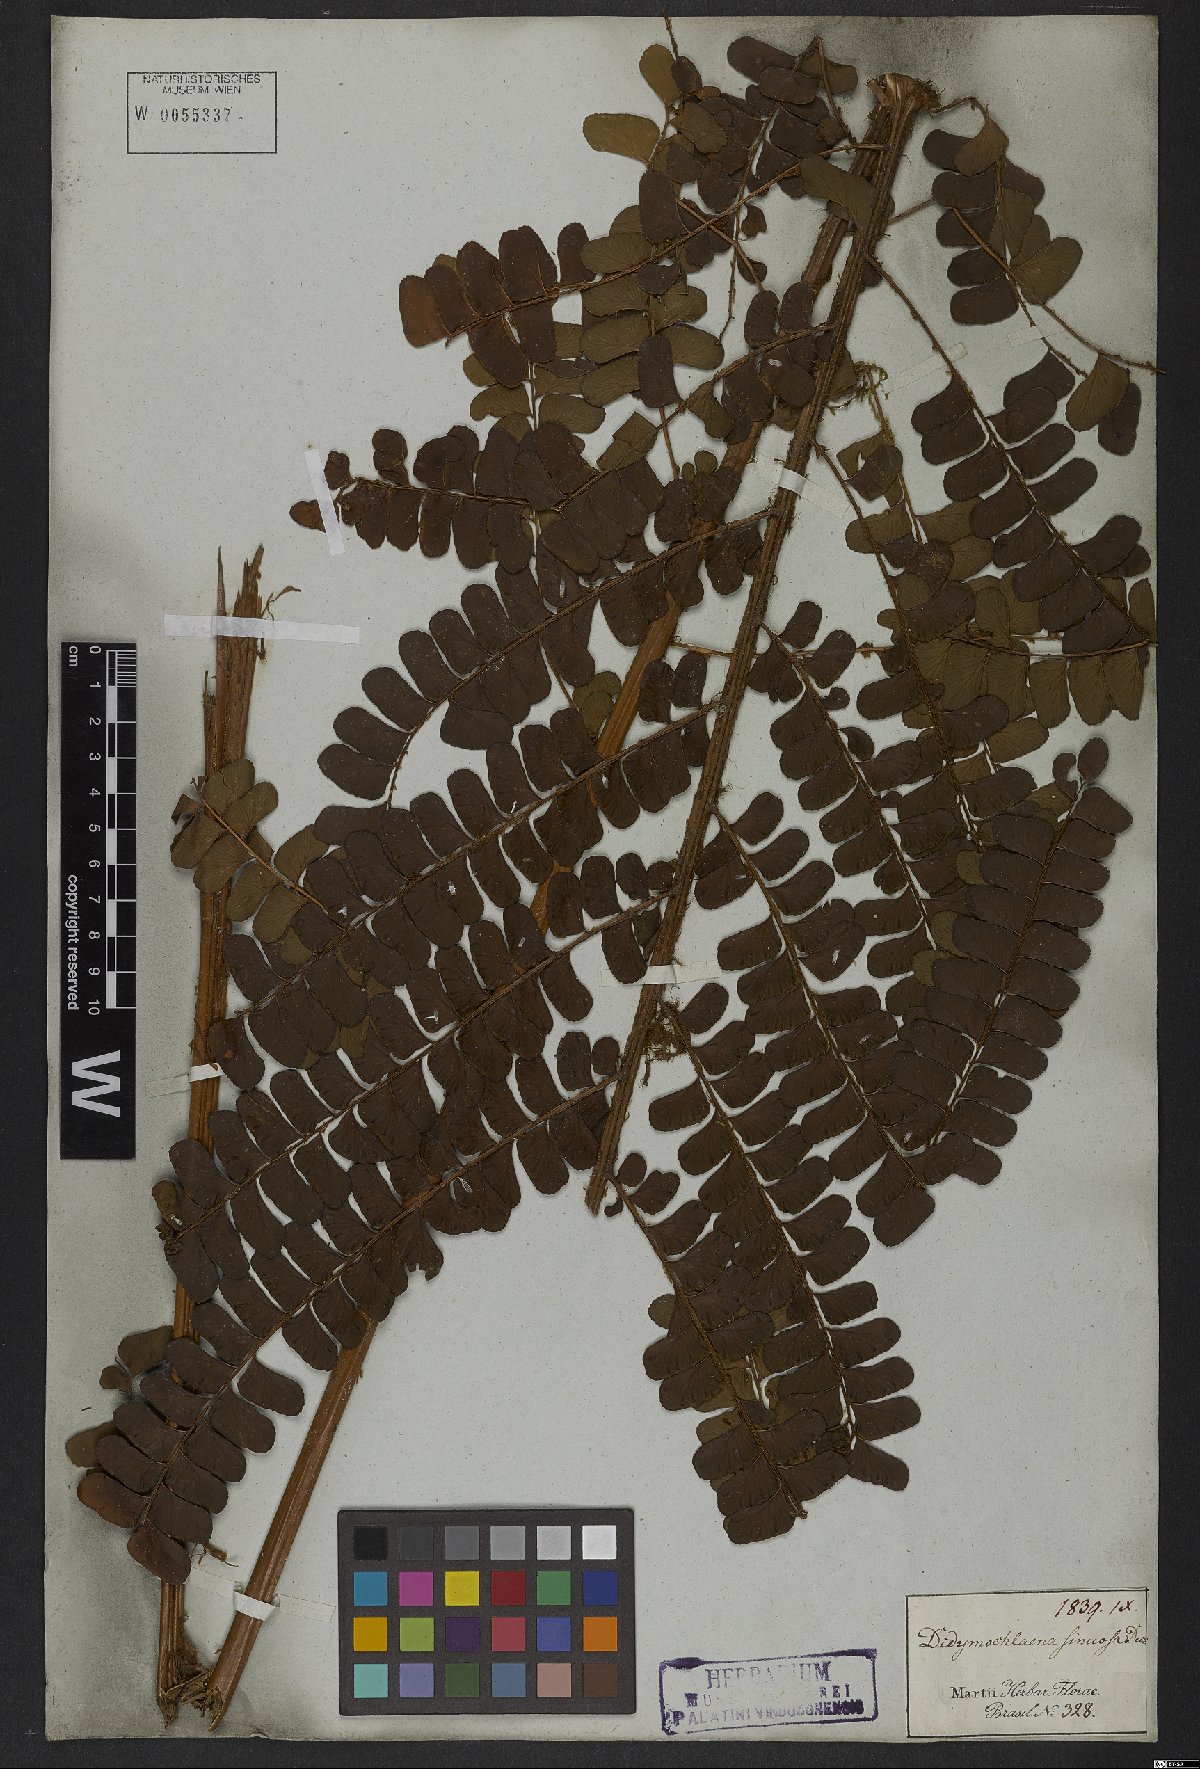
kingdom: Plantae
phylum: Tracheophyta
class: Polypodiopsida
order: Polypodiales
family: Didymochlaenaceae
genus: Didymochlaena
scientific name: Didymochlaena truncatula
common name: Mahogany fern
